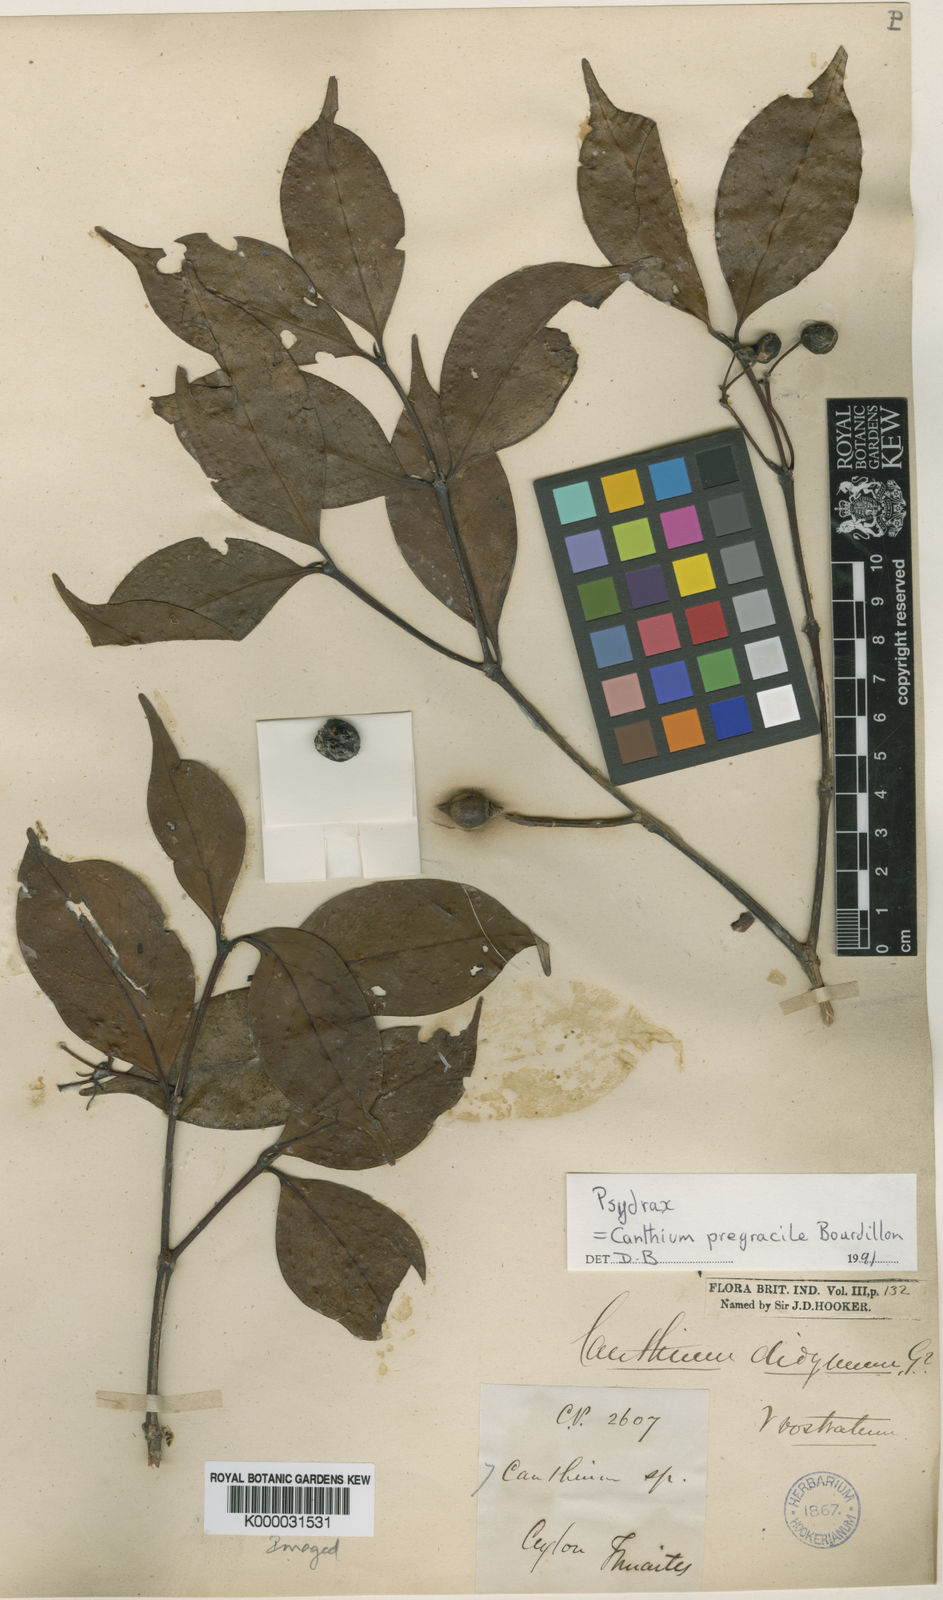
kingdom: Plantae
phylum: Tracheophyta
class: Magnoliopsida
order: Gentianales
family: Rubiaceae
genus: Psydrax
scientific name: Psydrax pergracilis
